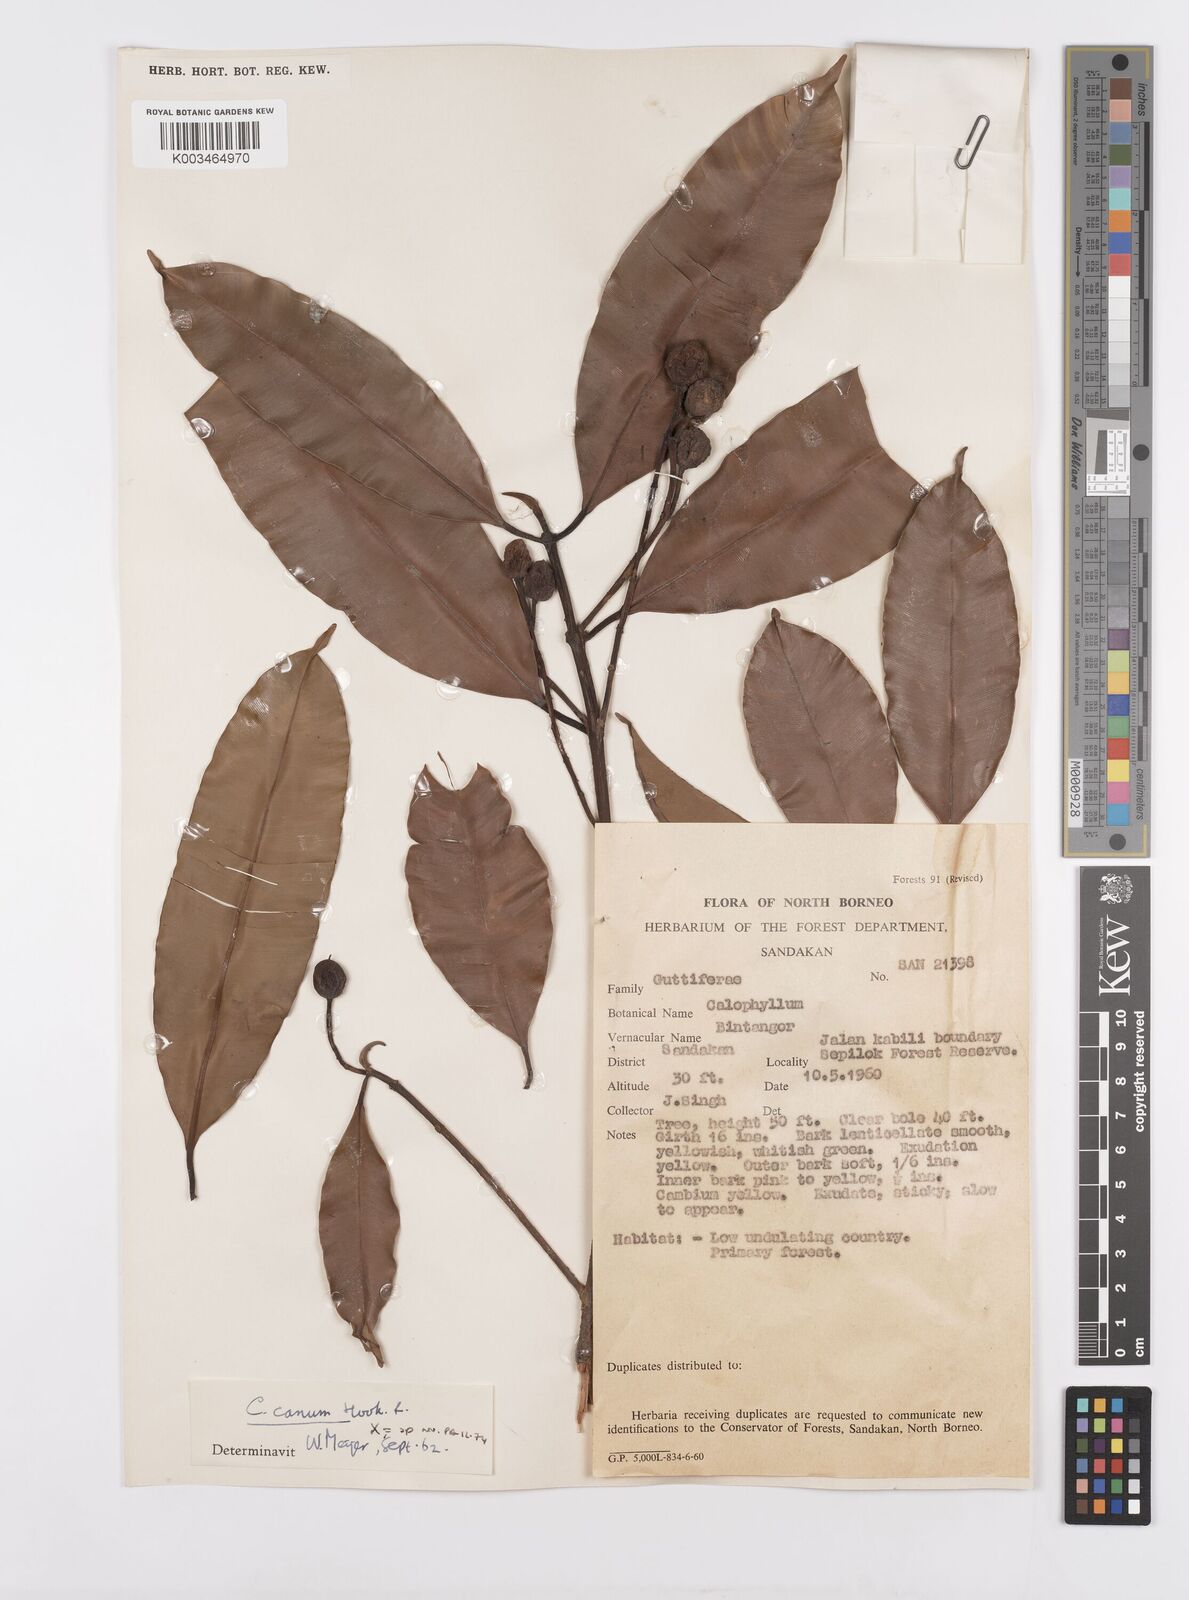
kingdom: Plantae
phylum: Tracheophyta
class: Magnoliopsida
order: Malpighiales
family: Calophyllaceae
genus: Calophyllum
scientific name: Calophyllum blancoi
